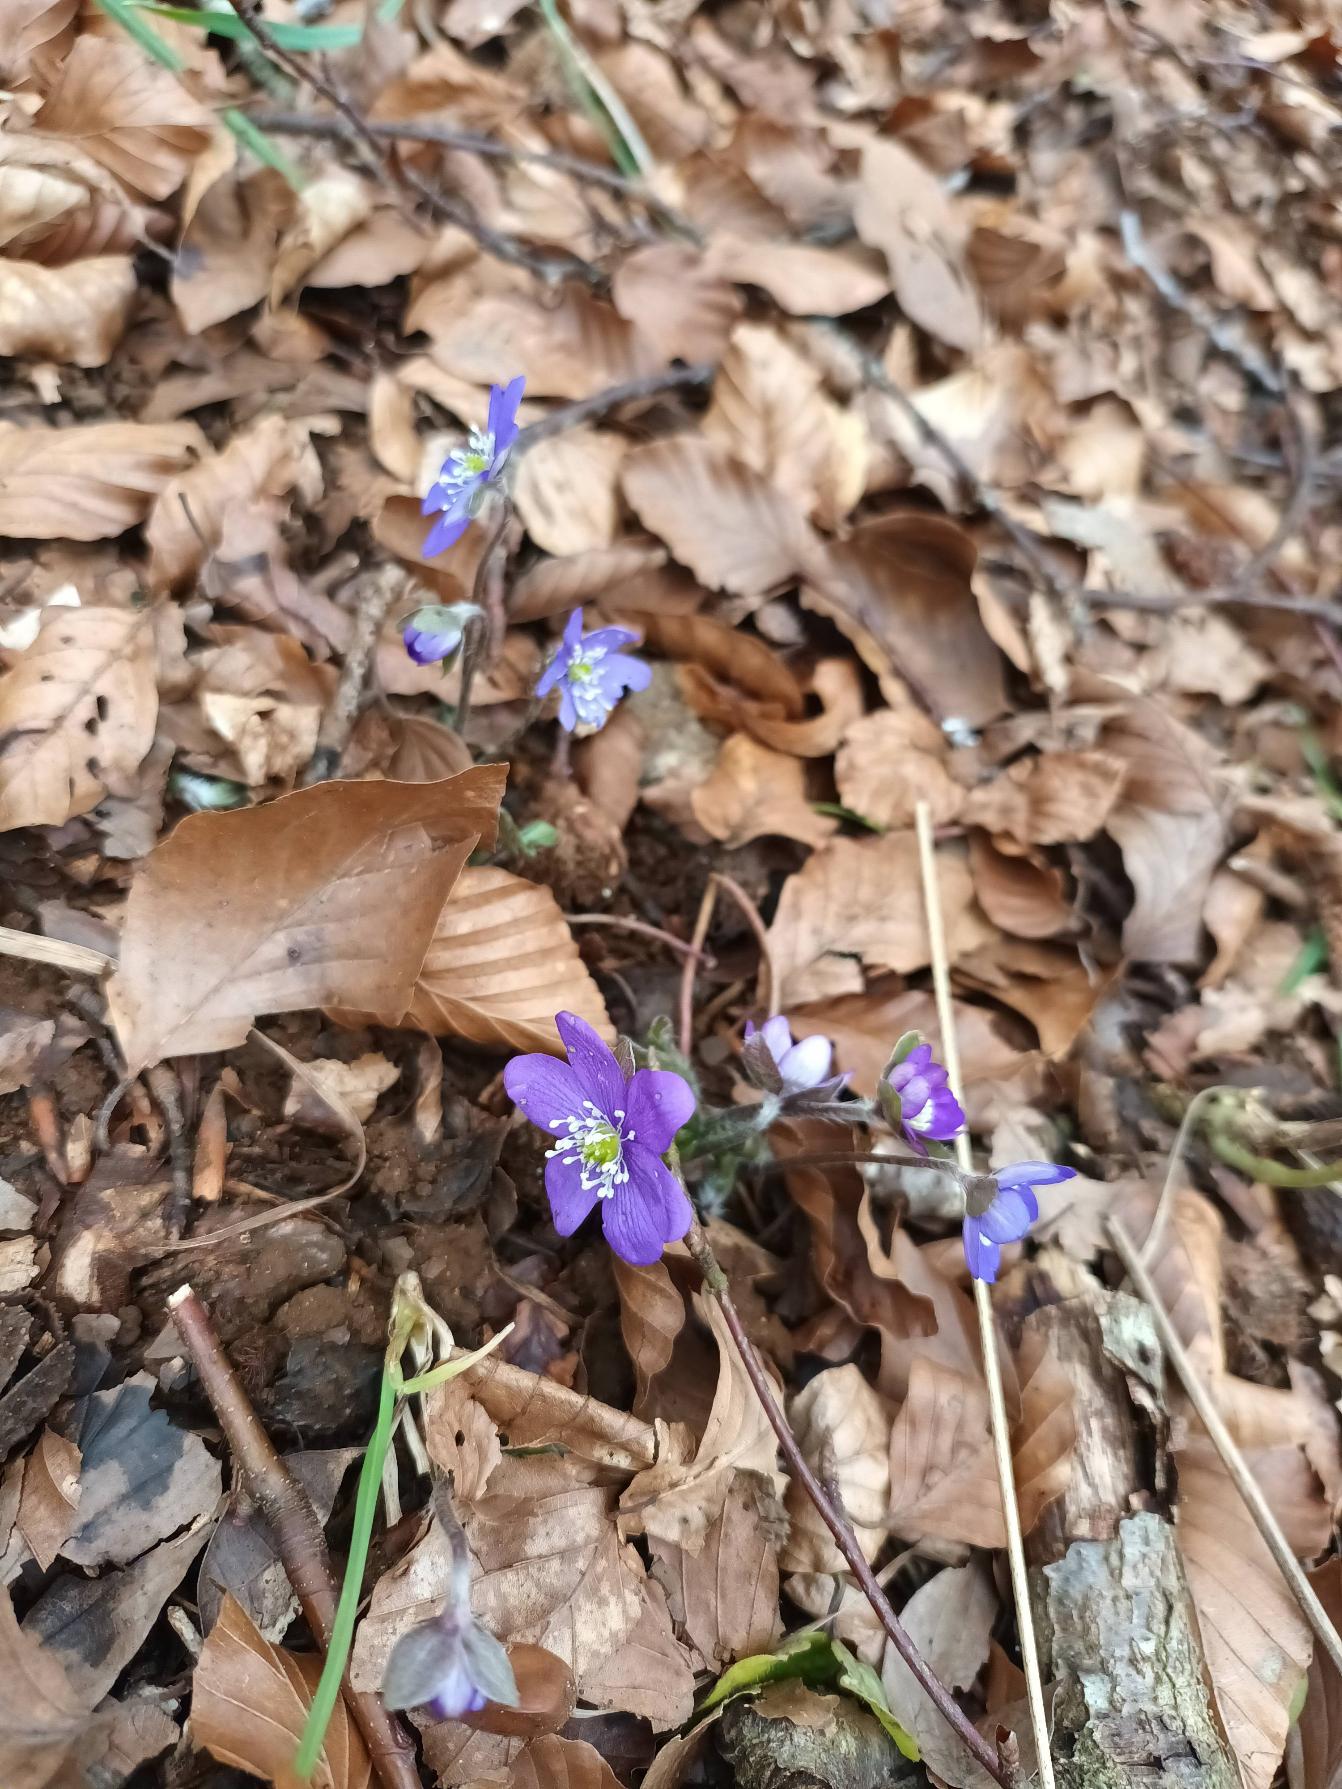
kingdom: Plantae
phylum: Tracheophyta
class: Magnoliopsida
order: Ranunculales
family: Ranunculaceae
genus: Hepatica
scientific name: Hepatica nobilis
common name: Blå anemone
